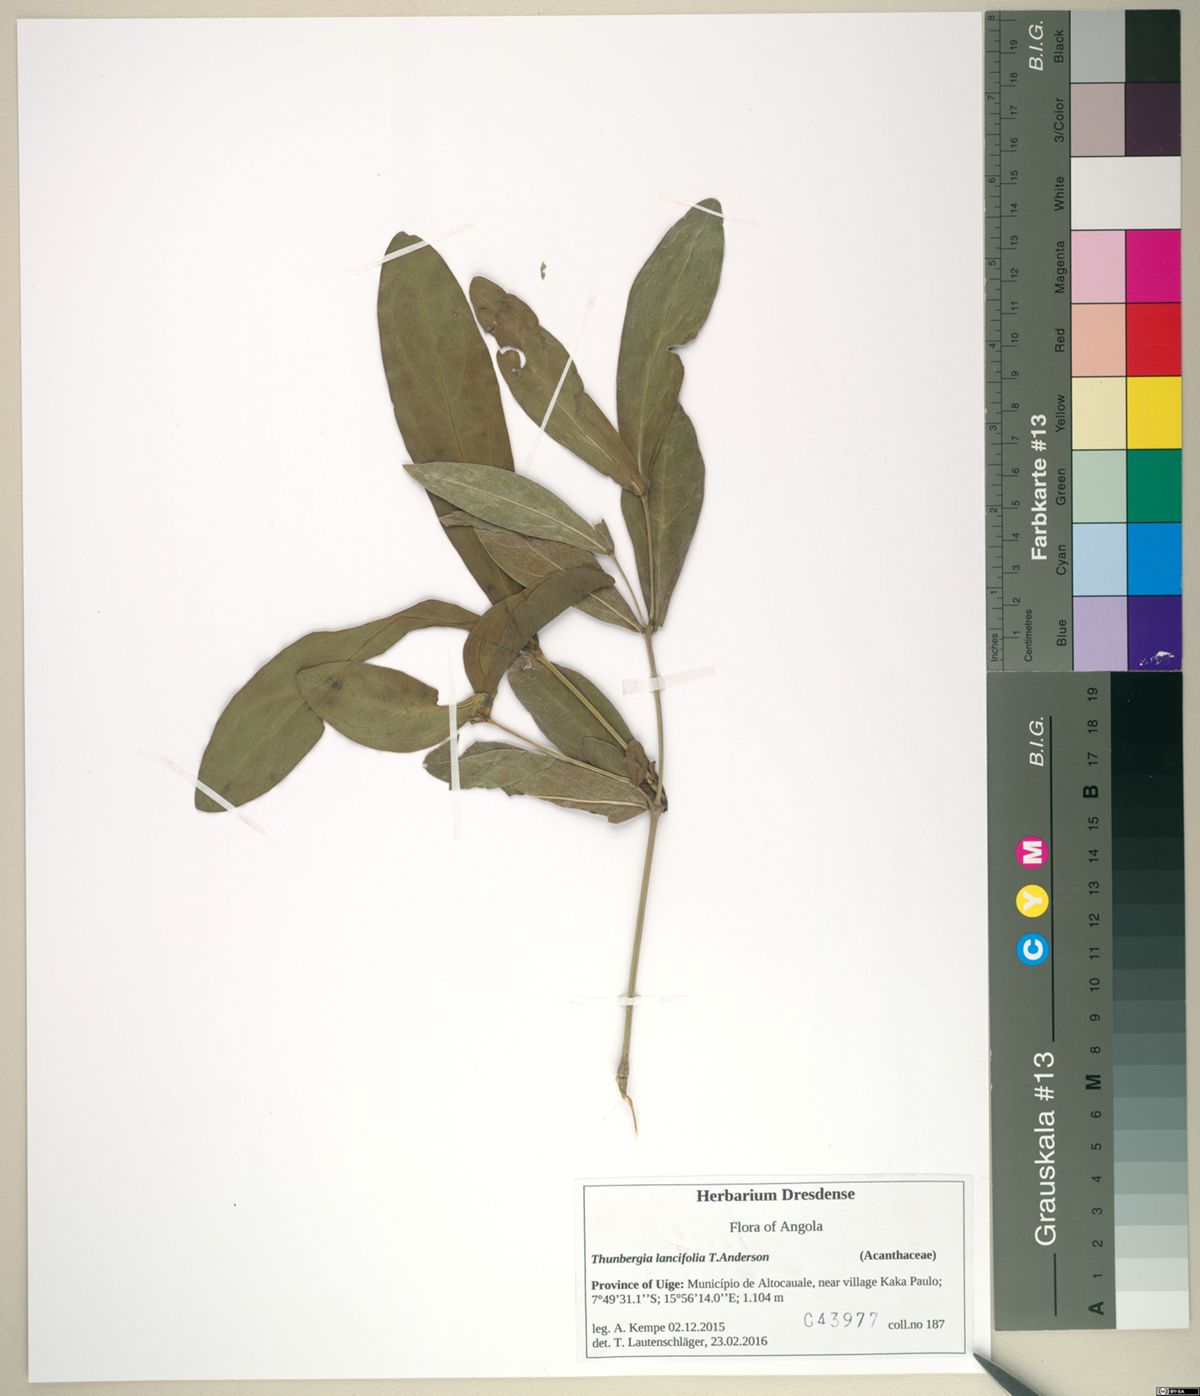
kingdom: Plantae
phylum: Tracheophyta
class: Magnoliopsida
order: Lamiales
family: Acanthaceae
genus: Thunbergia
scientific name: Thunbergia lancifolia
